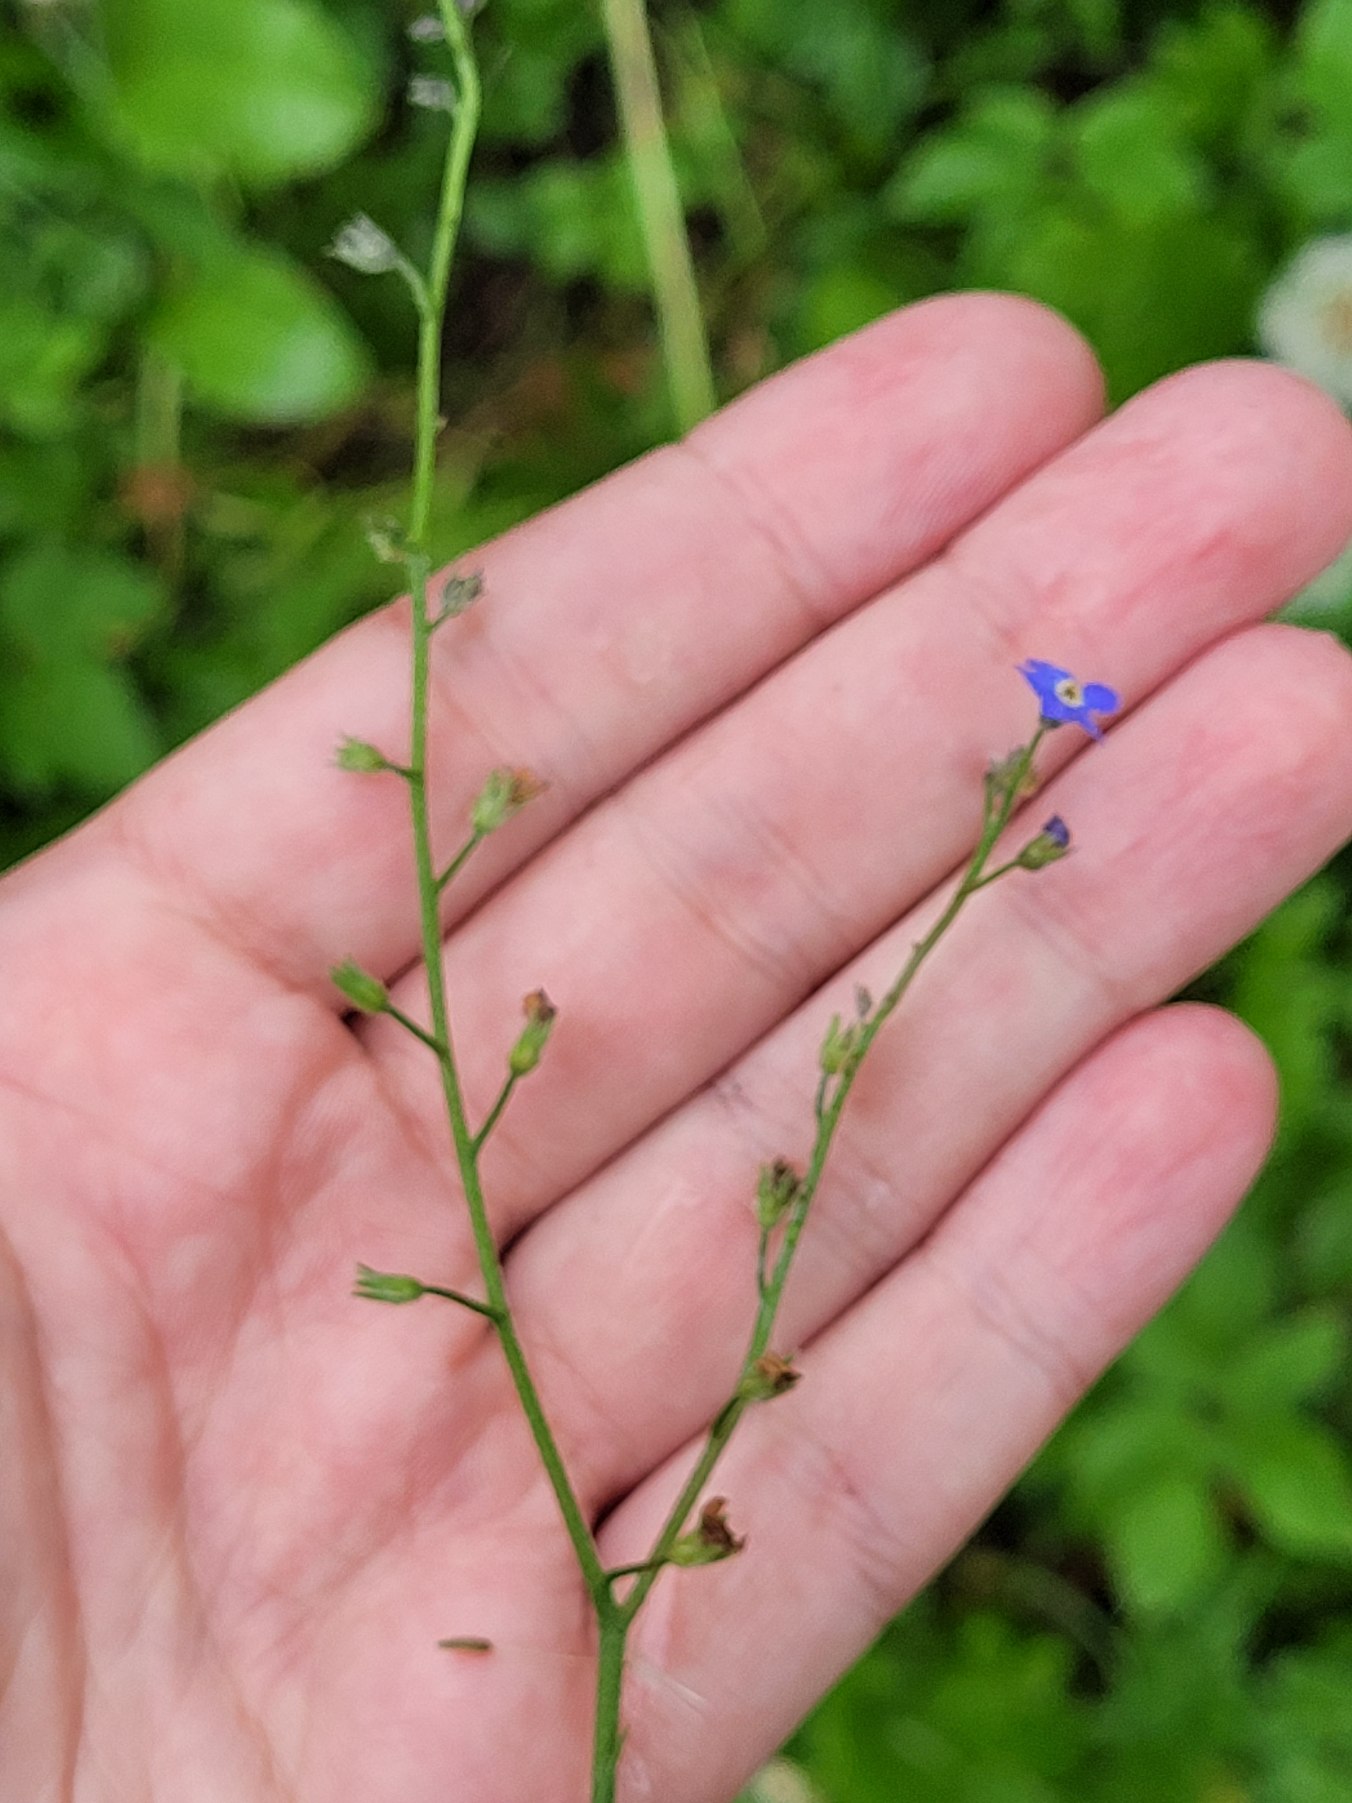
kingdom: Plantae
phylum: Tracheophyta
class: Magnoliopsida
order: Boraginales
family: Boraginaceae
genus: Myosotis
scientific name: Myosotis sylvatica
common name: Skov-forglemmigej
